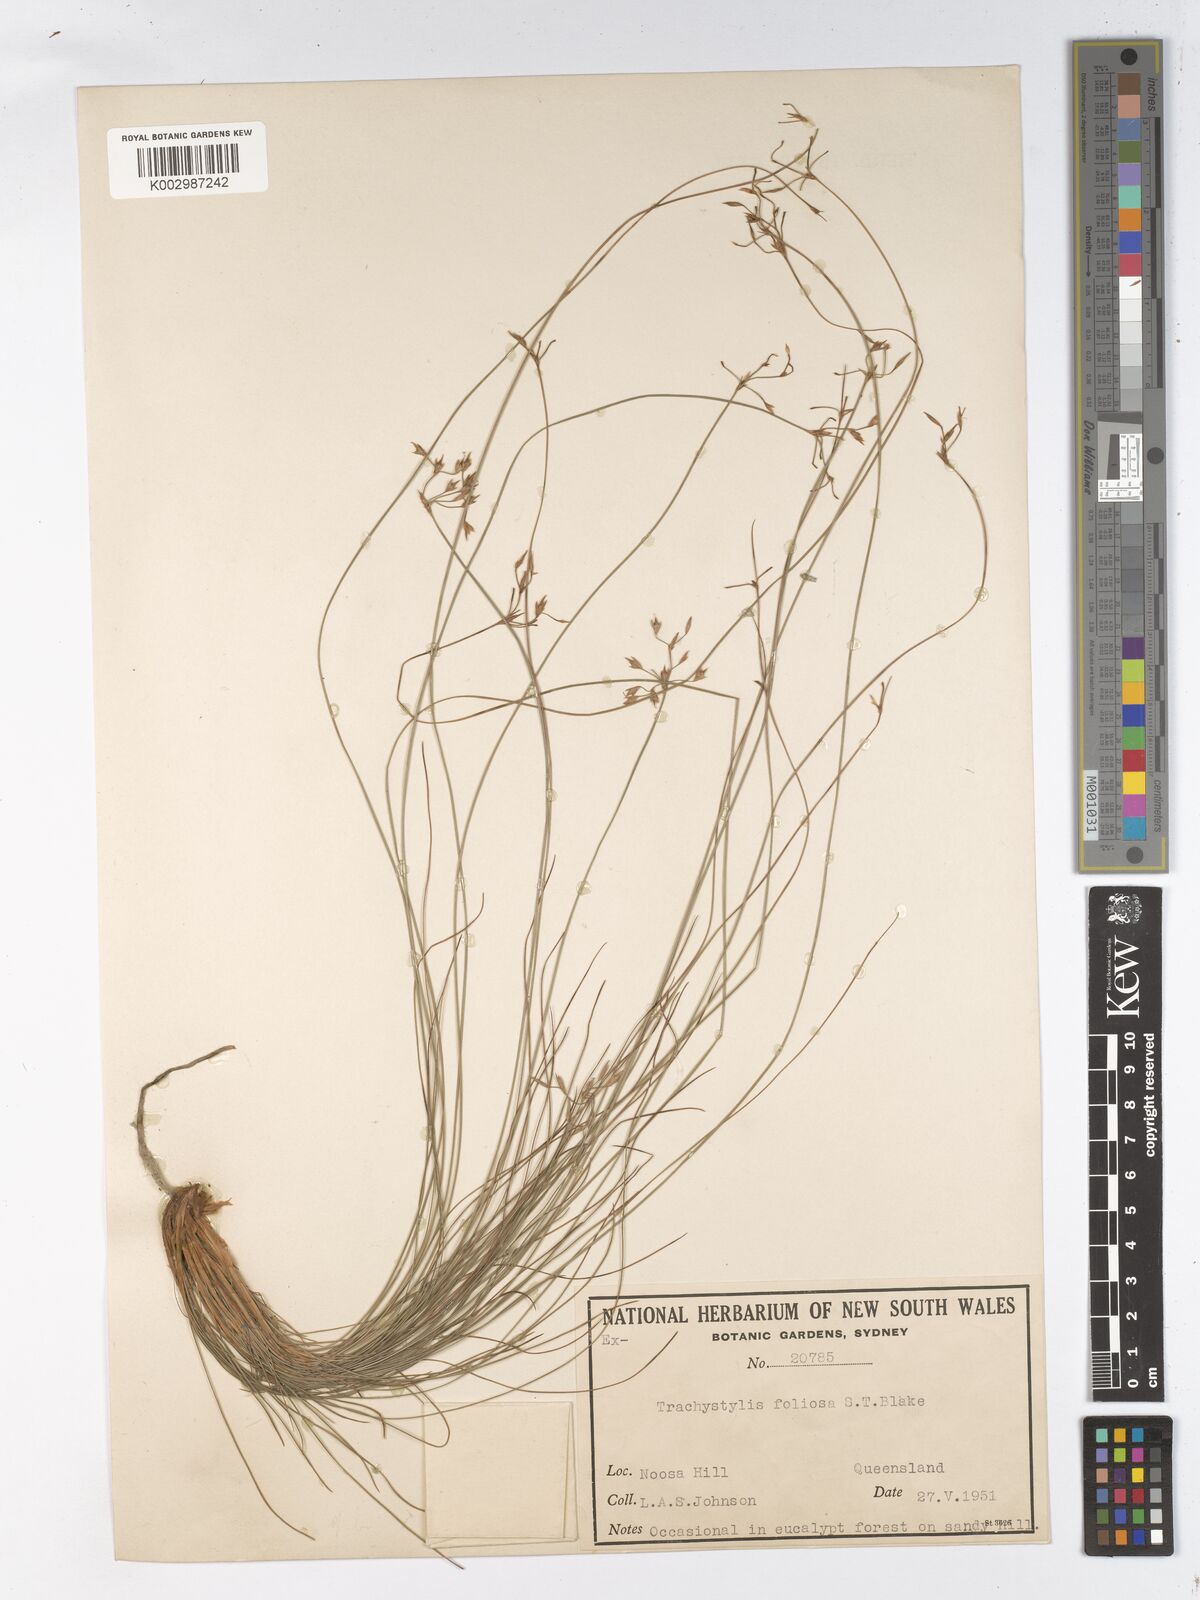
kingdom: Plantae
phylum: Tracheophyta
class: Liliopsida
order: Poales
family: Cyperaceae
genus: Trachystylis
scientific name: Trachystylis stradbrokensis
